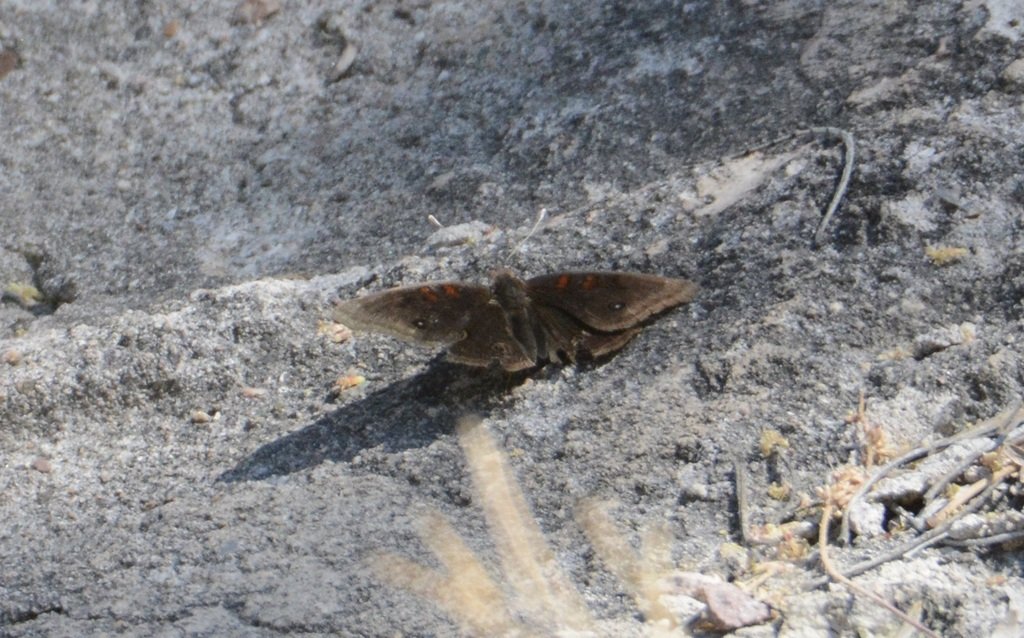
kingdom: Animalia
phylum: Arthropoda
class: Insecta
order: Lepidoptera
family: Nymphalidae
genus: Junonia
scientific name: Junonia lavinia
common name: Tropical Buckeye
